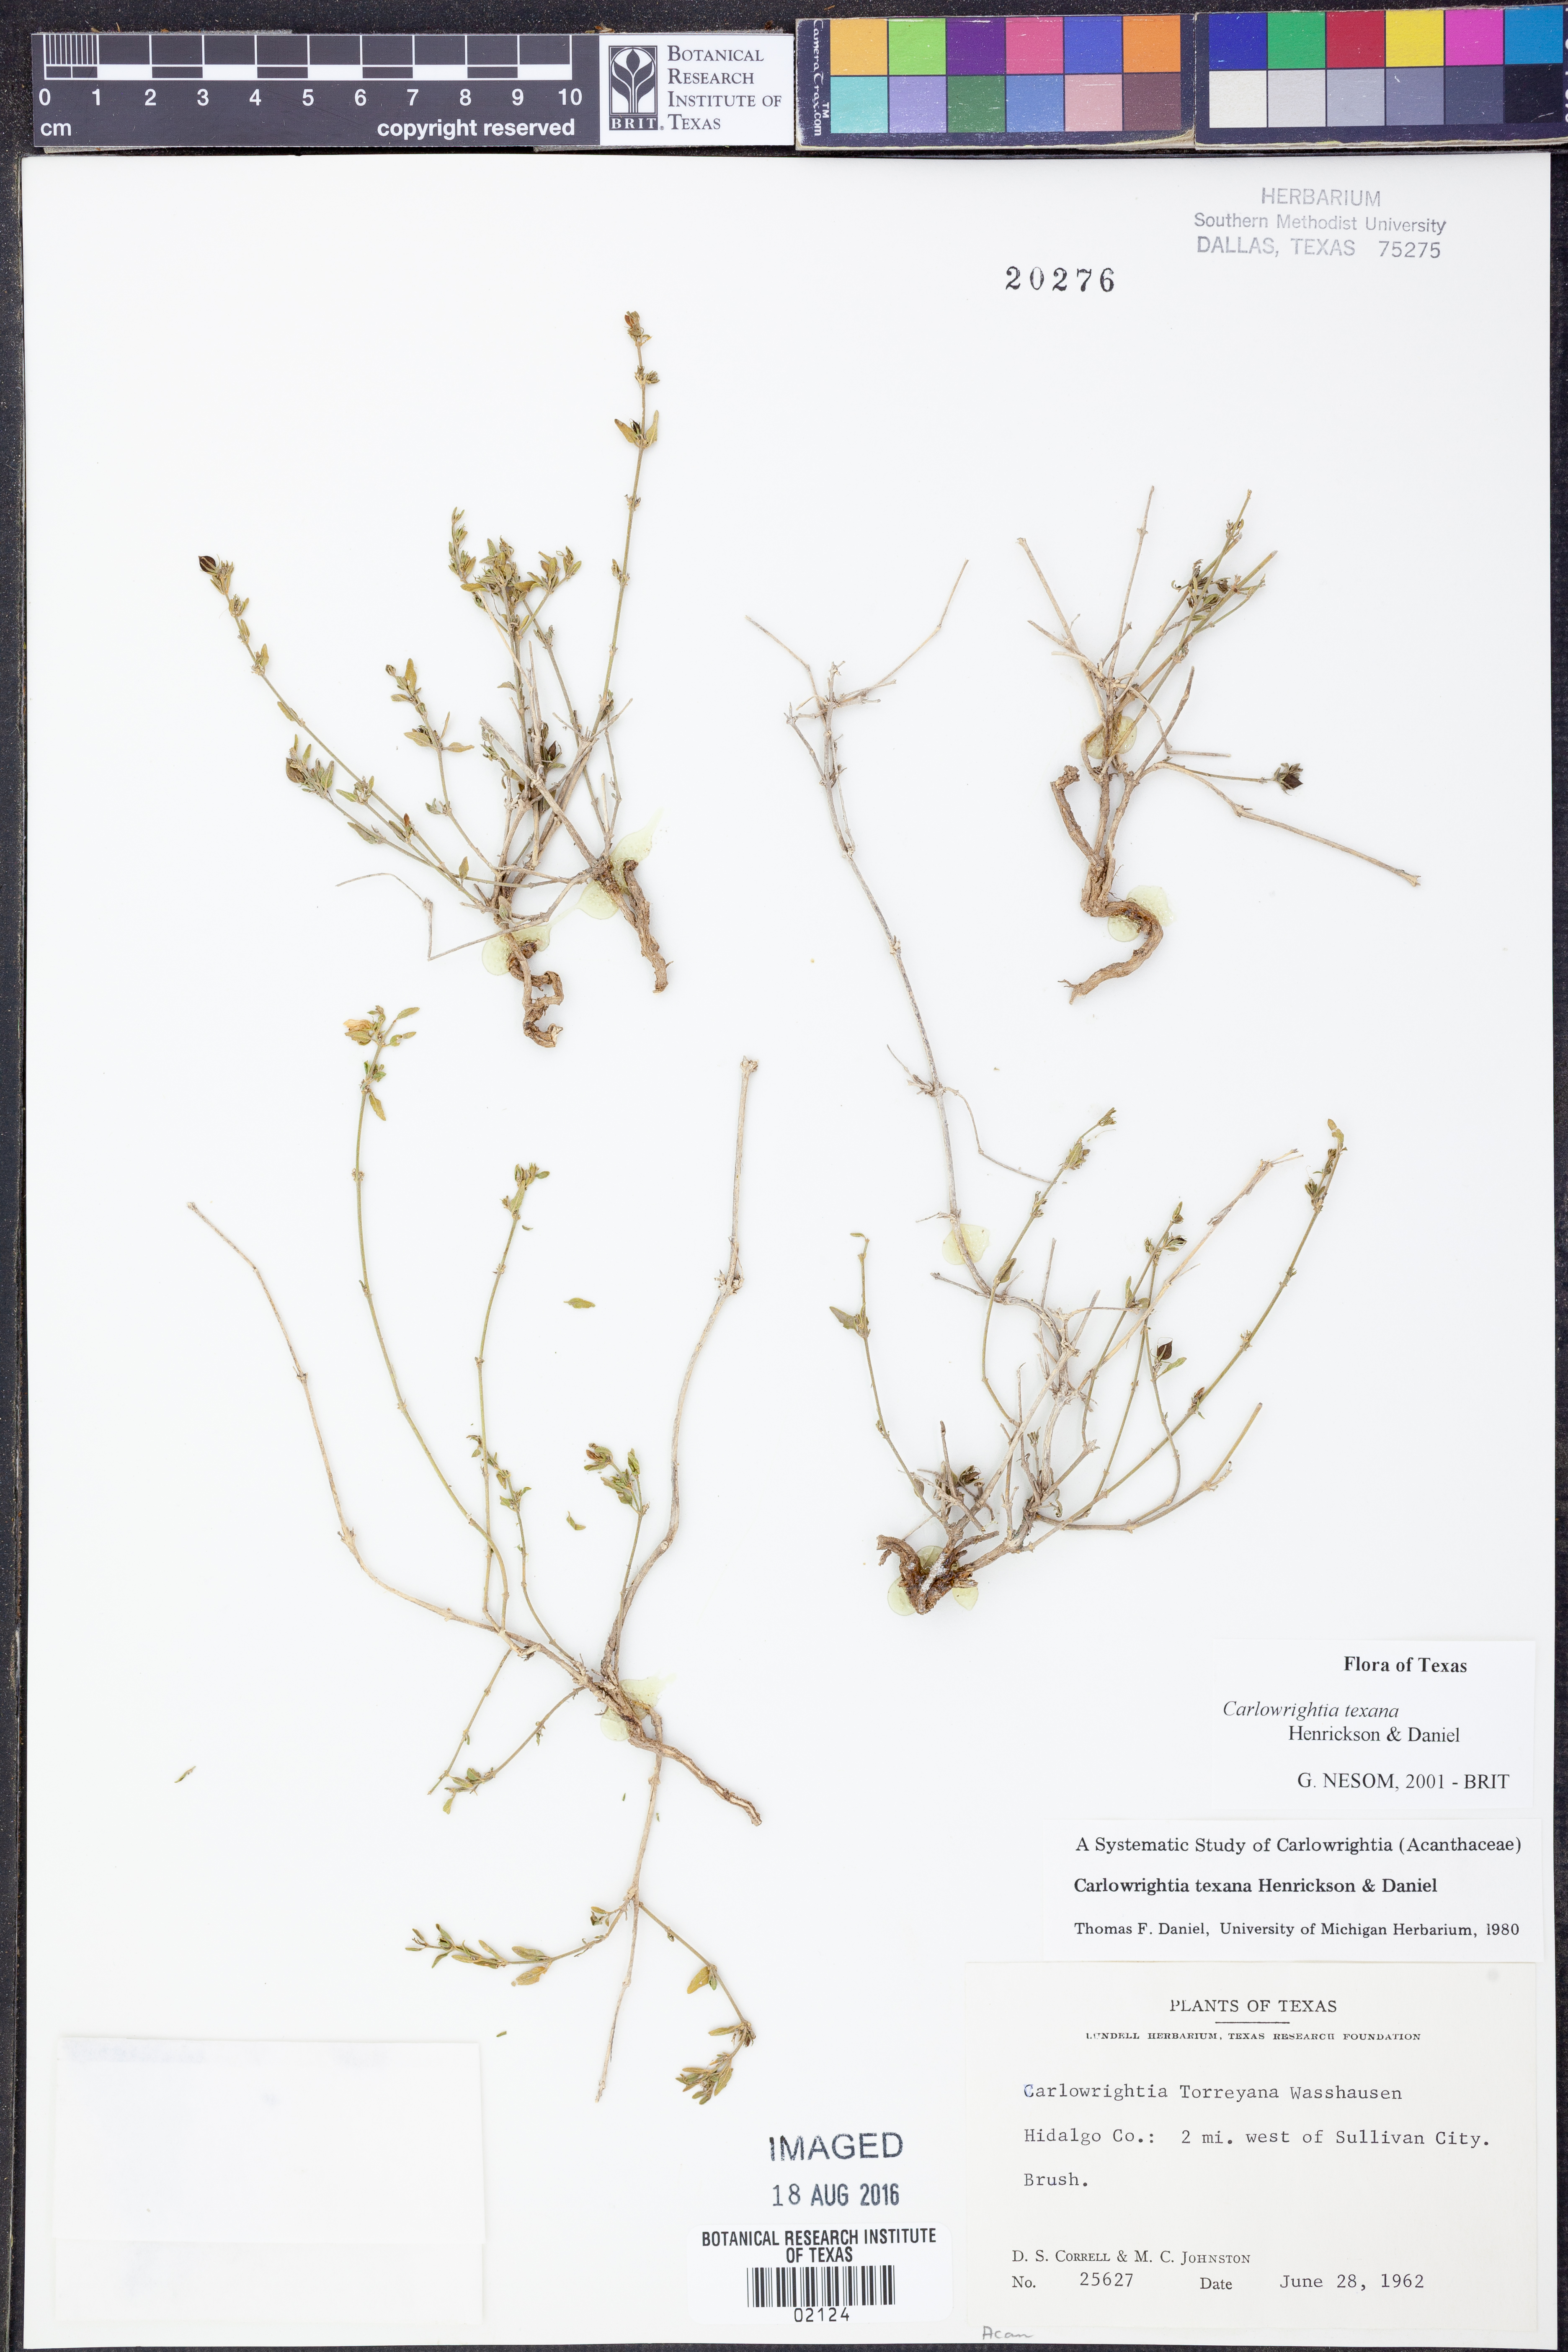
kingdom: Plantae
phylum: Tracheophyta
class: Magnoliopsida
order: Lamiales
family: Acanthaceae
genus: Carlowrightia
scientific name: Carlowrightia texana
